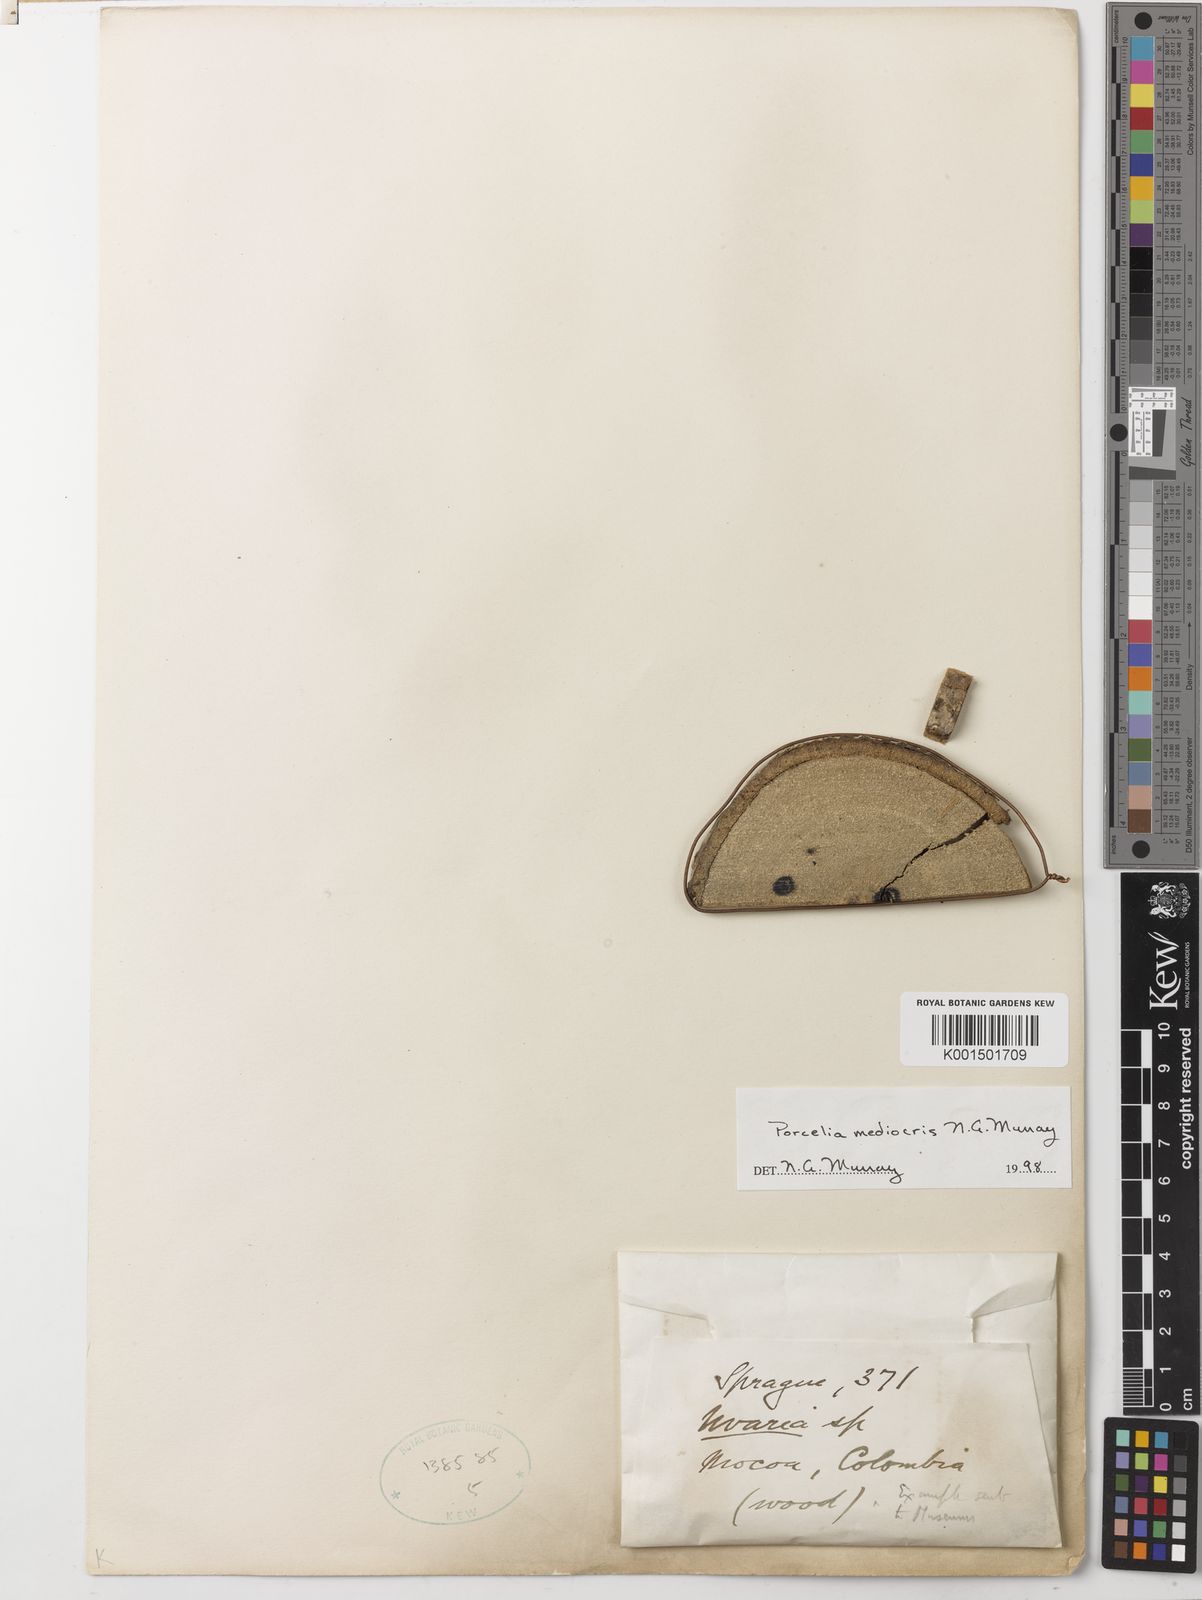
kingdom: Plantae
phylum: Tracheophyta
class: Magnoliopsida
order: Magnoliales
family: Annonaceae
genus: Porcelia
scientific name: Porcelia mediocris
